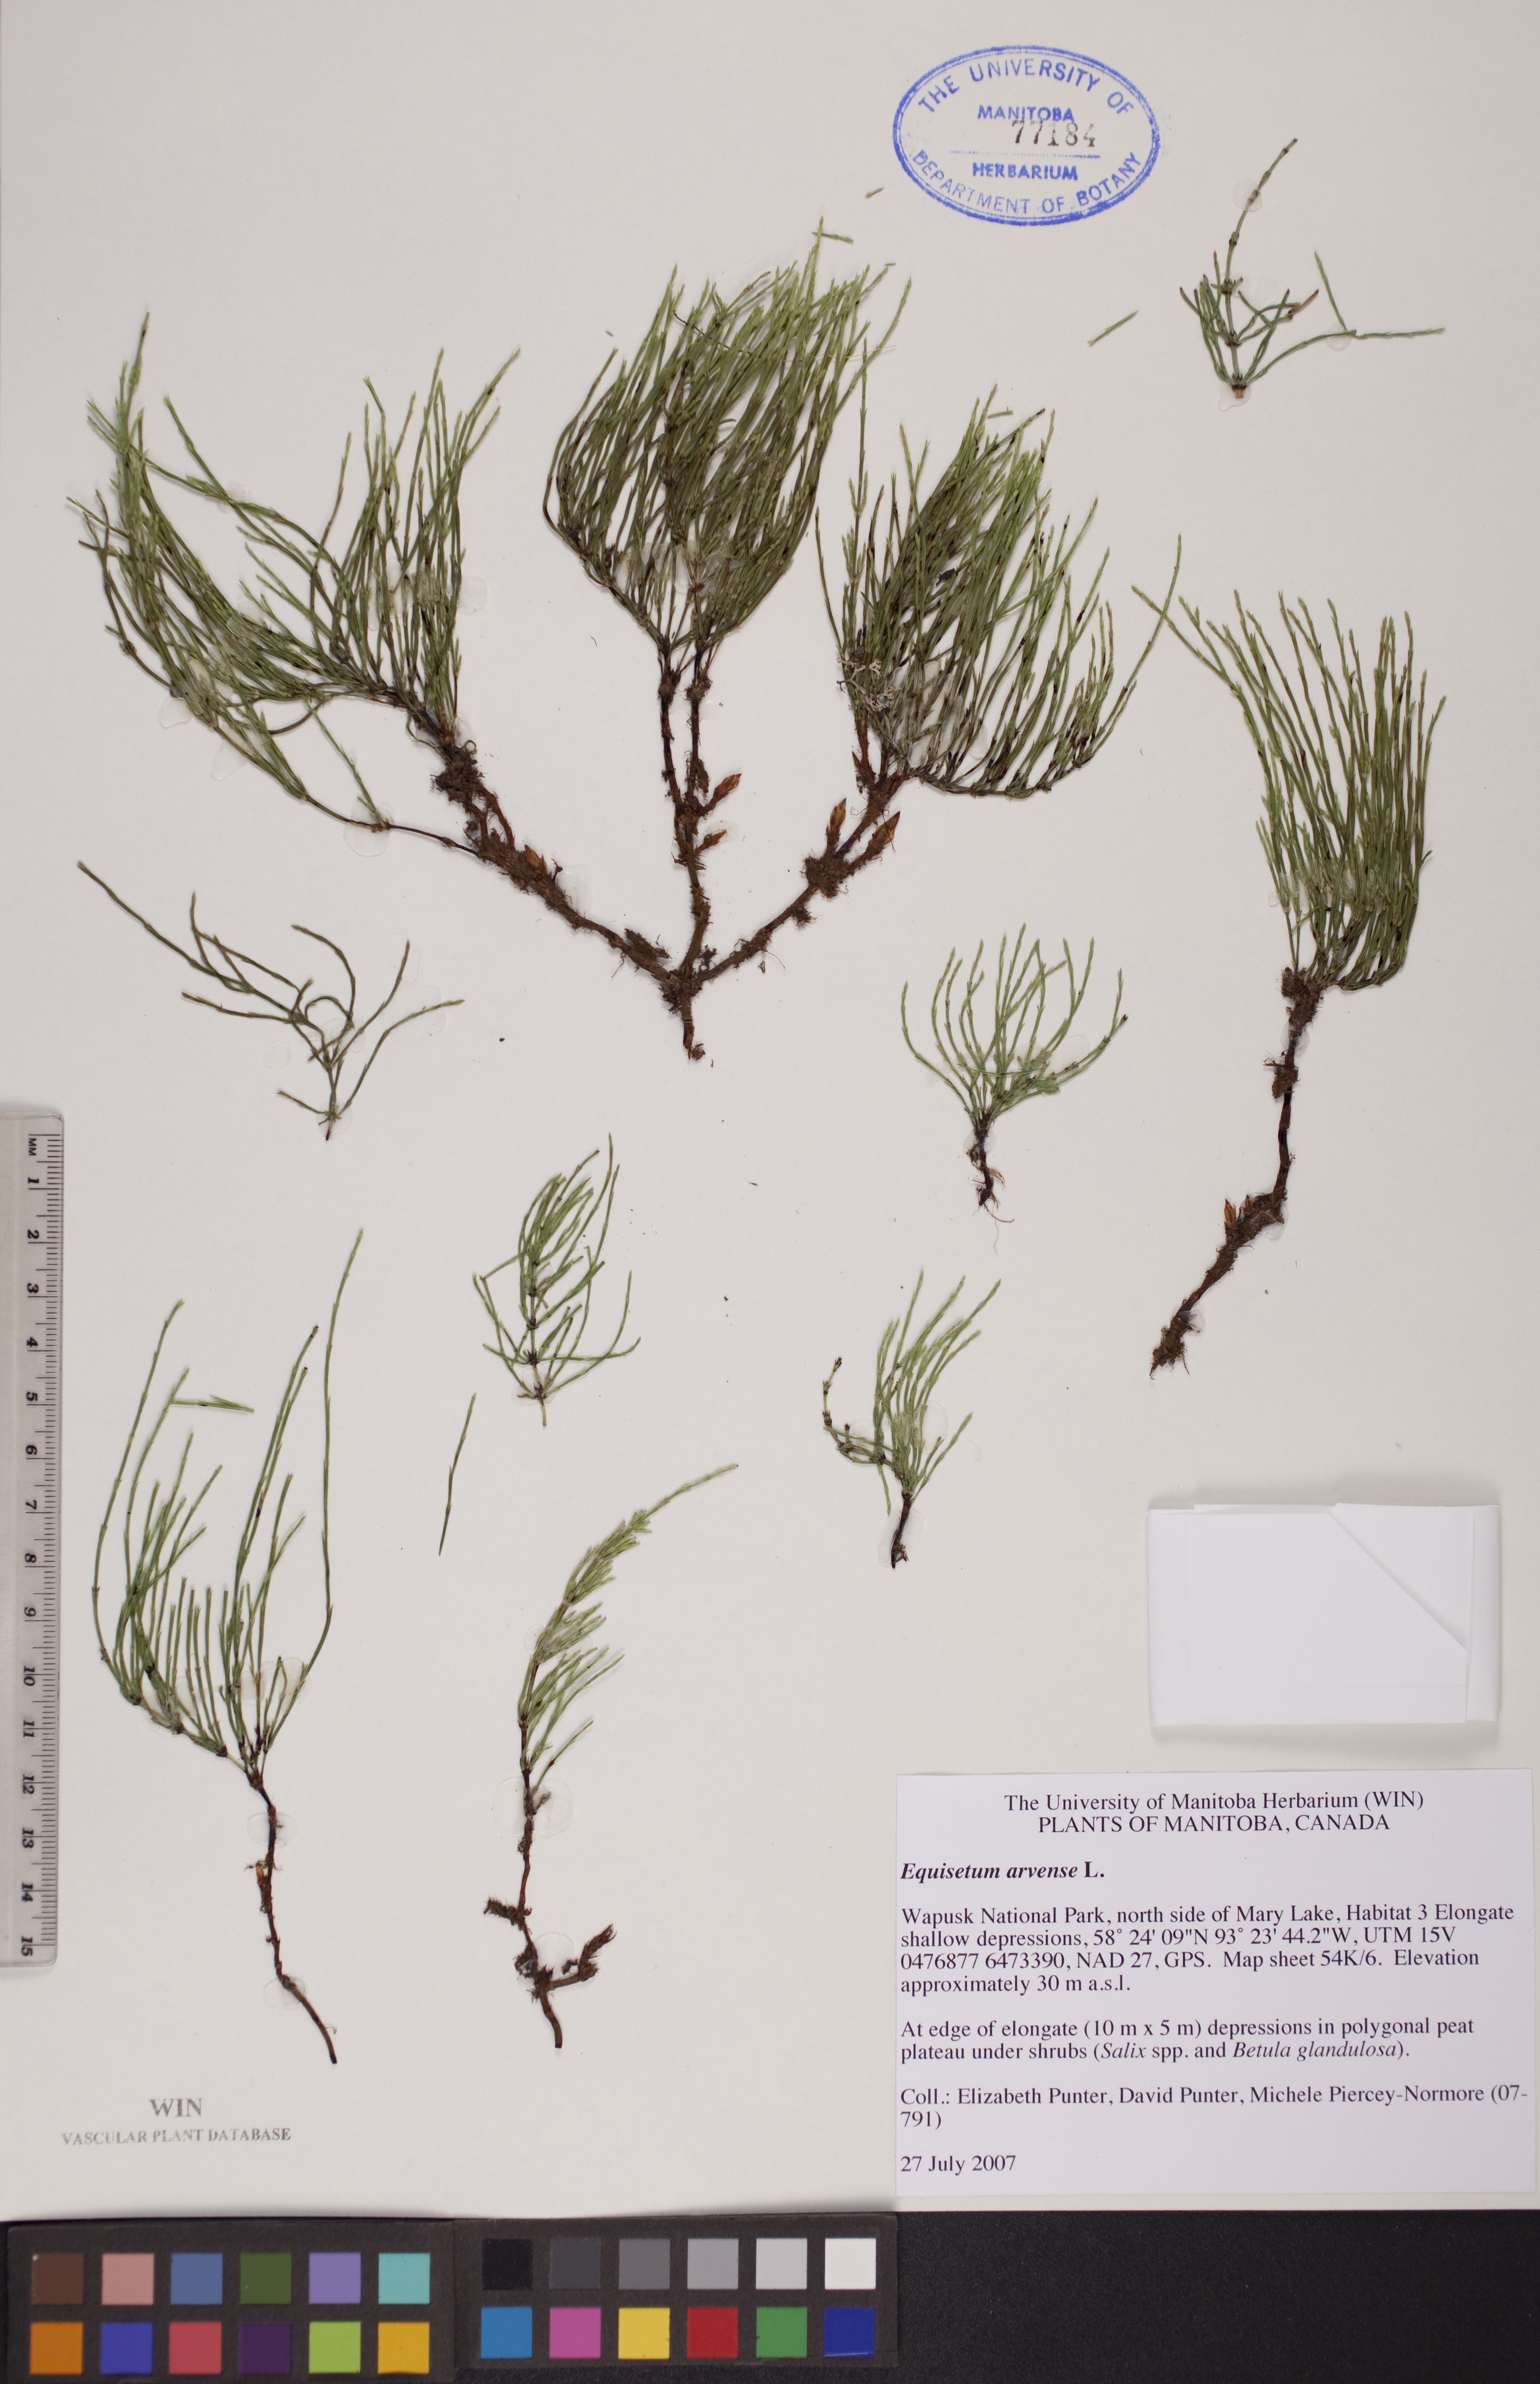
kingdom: Plantae
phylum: Tracheophyta
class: Polypodiopsida
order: Equisetales
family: Equisetaceae
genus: Equisetum
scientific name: Equisetum arvense
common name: Field horsetail
